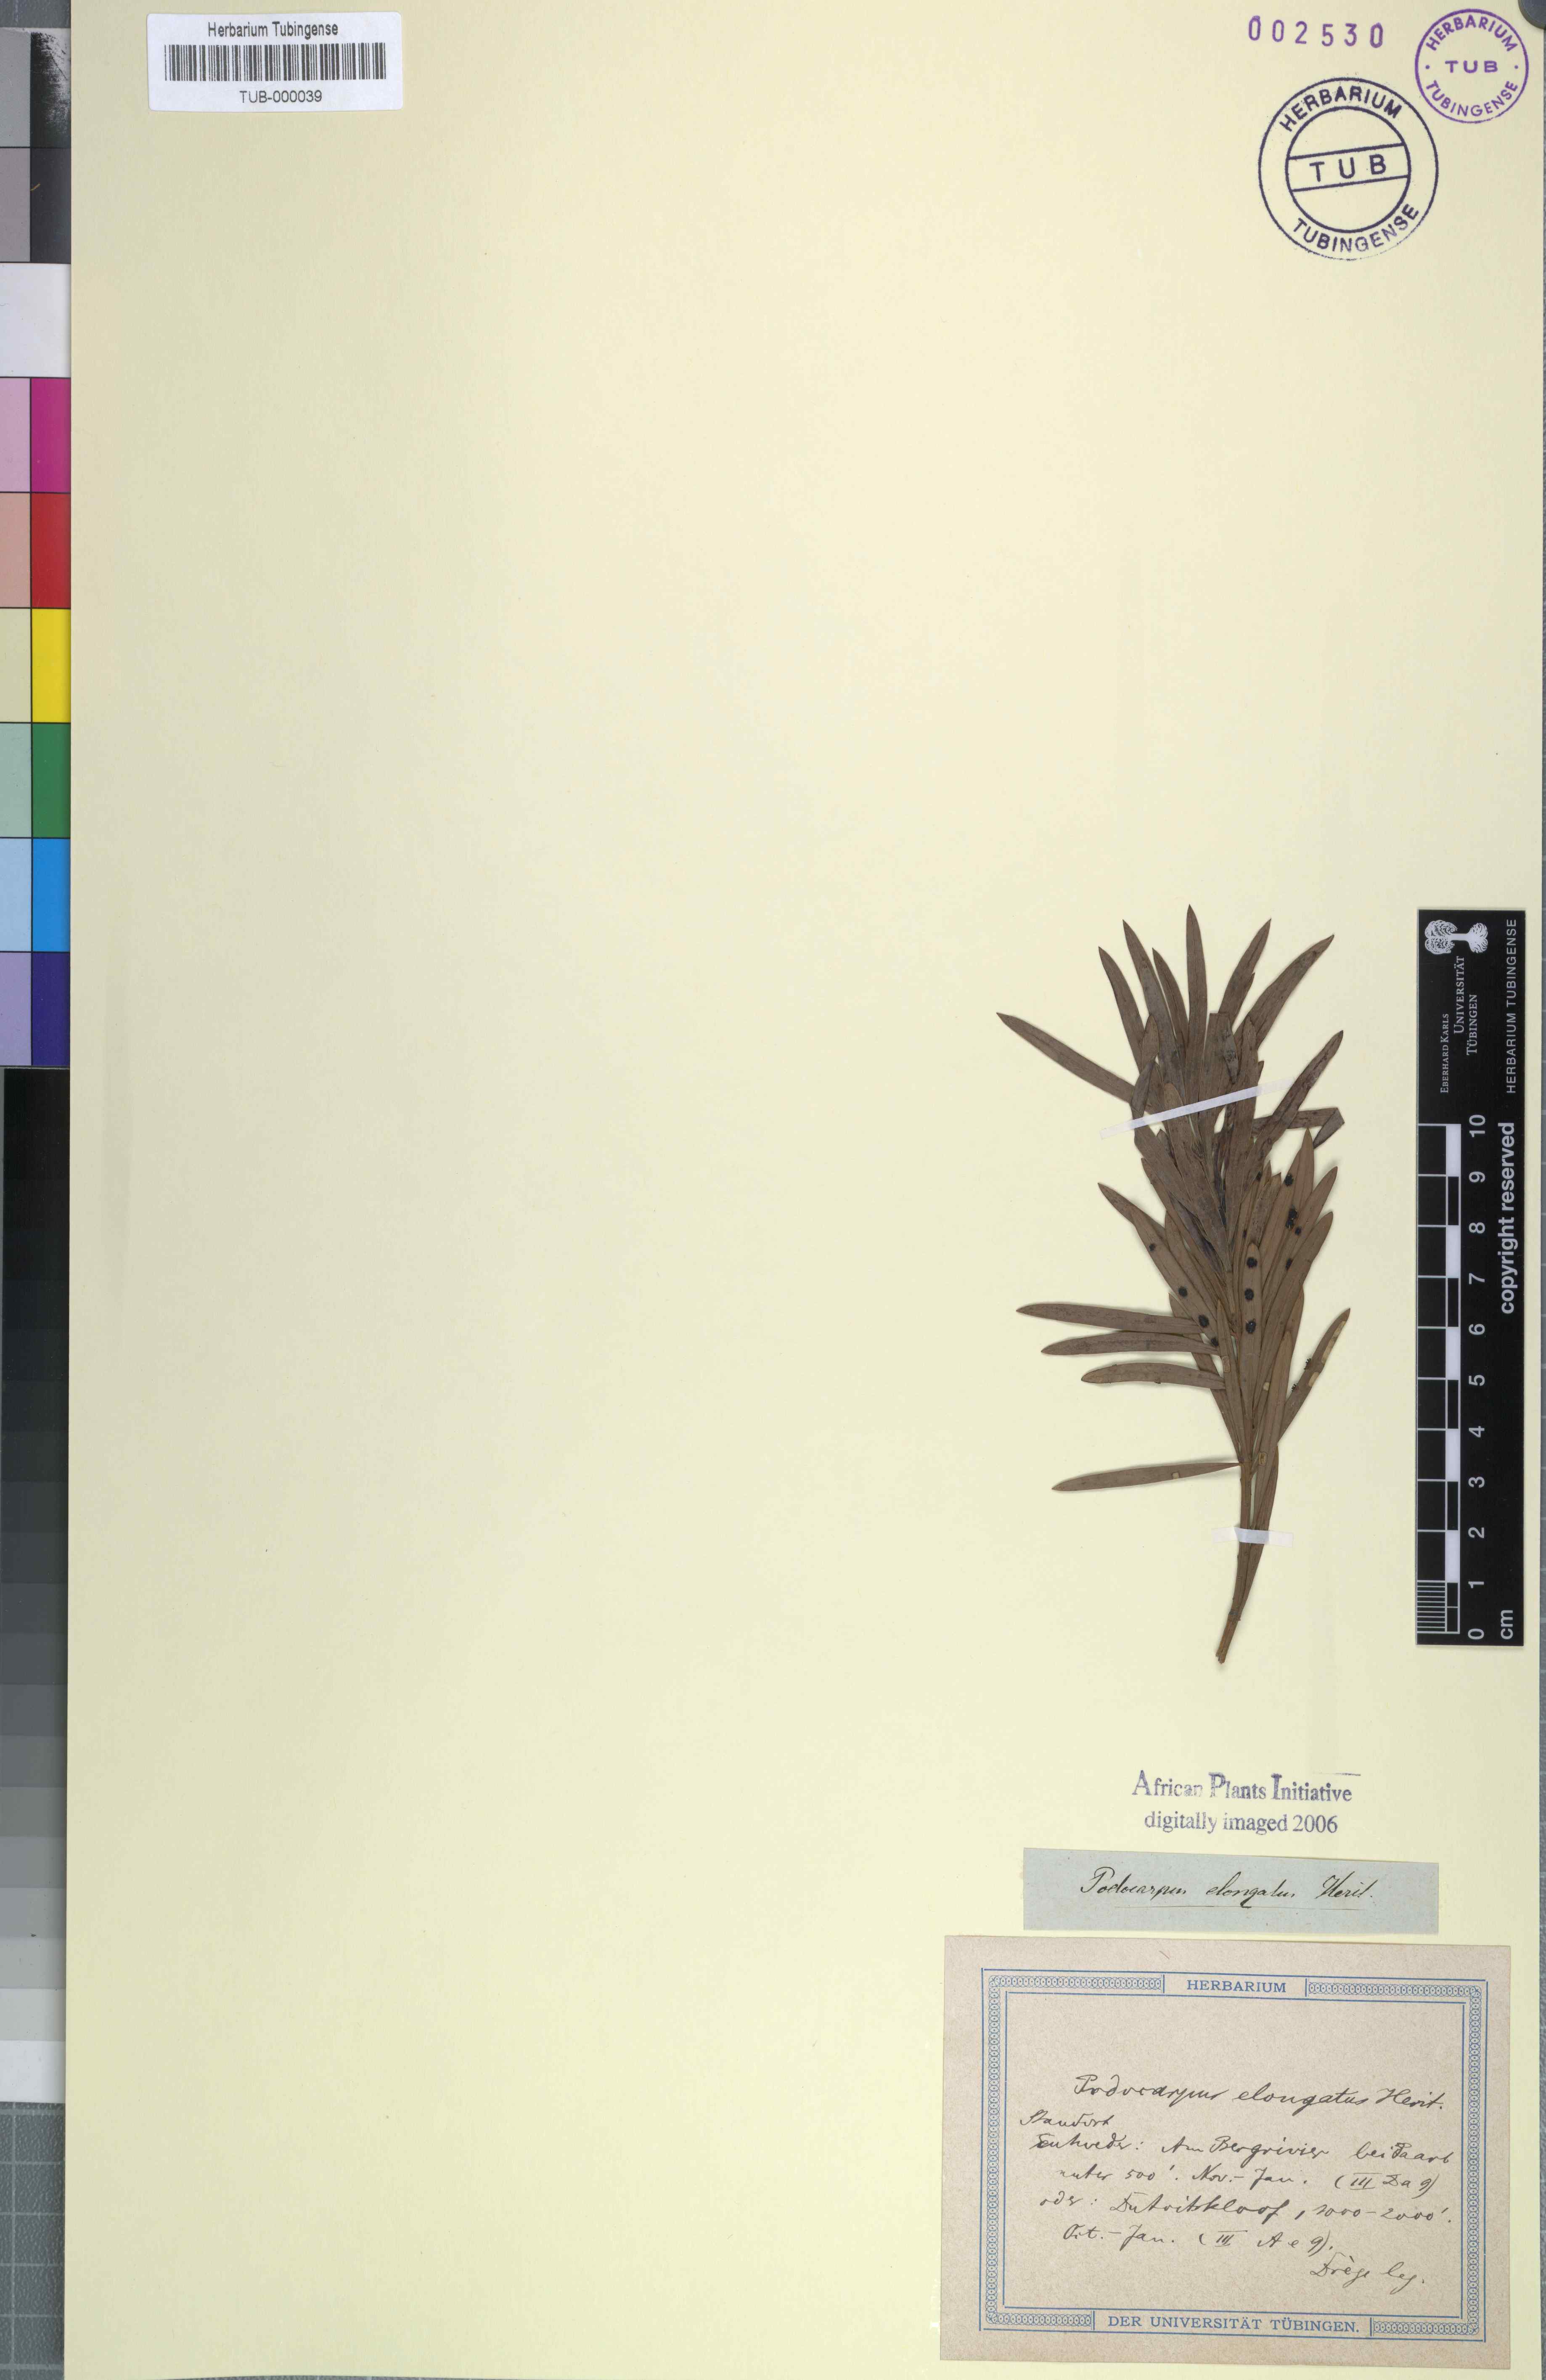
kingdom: Plantae
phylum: Tracheophyta
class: Pinopsida
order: Pinales
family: Podocarpaceae
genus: Podocarpus
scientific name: Podocarpus elongatus
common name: Breede river yellowwood
